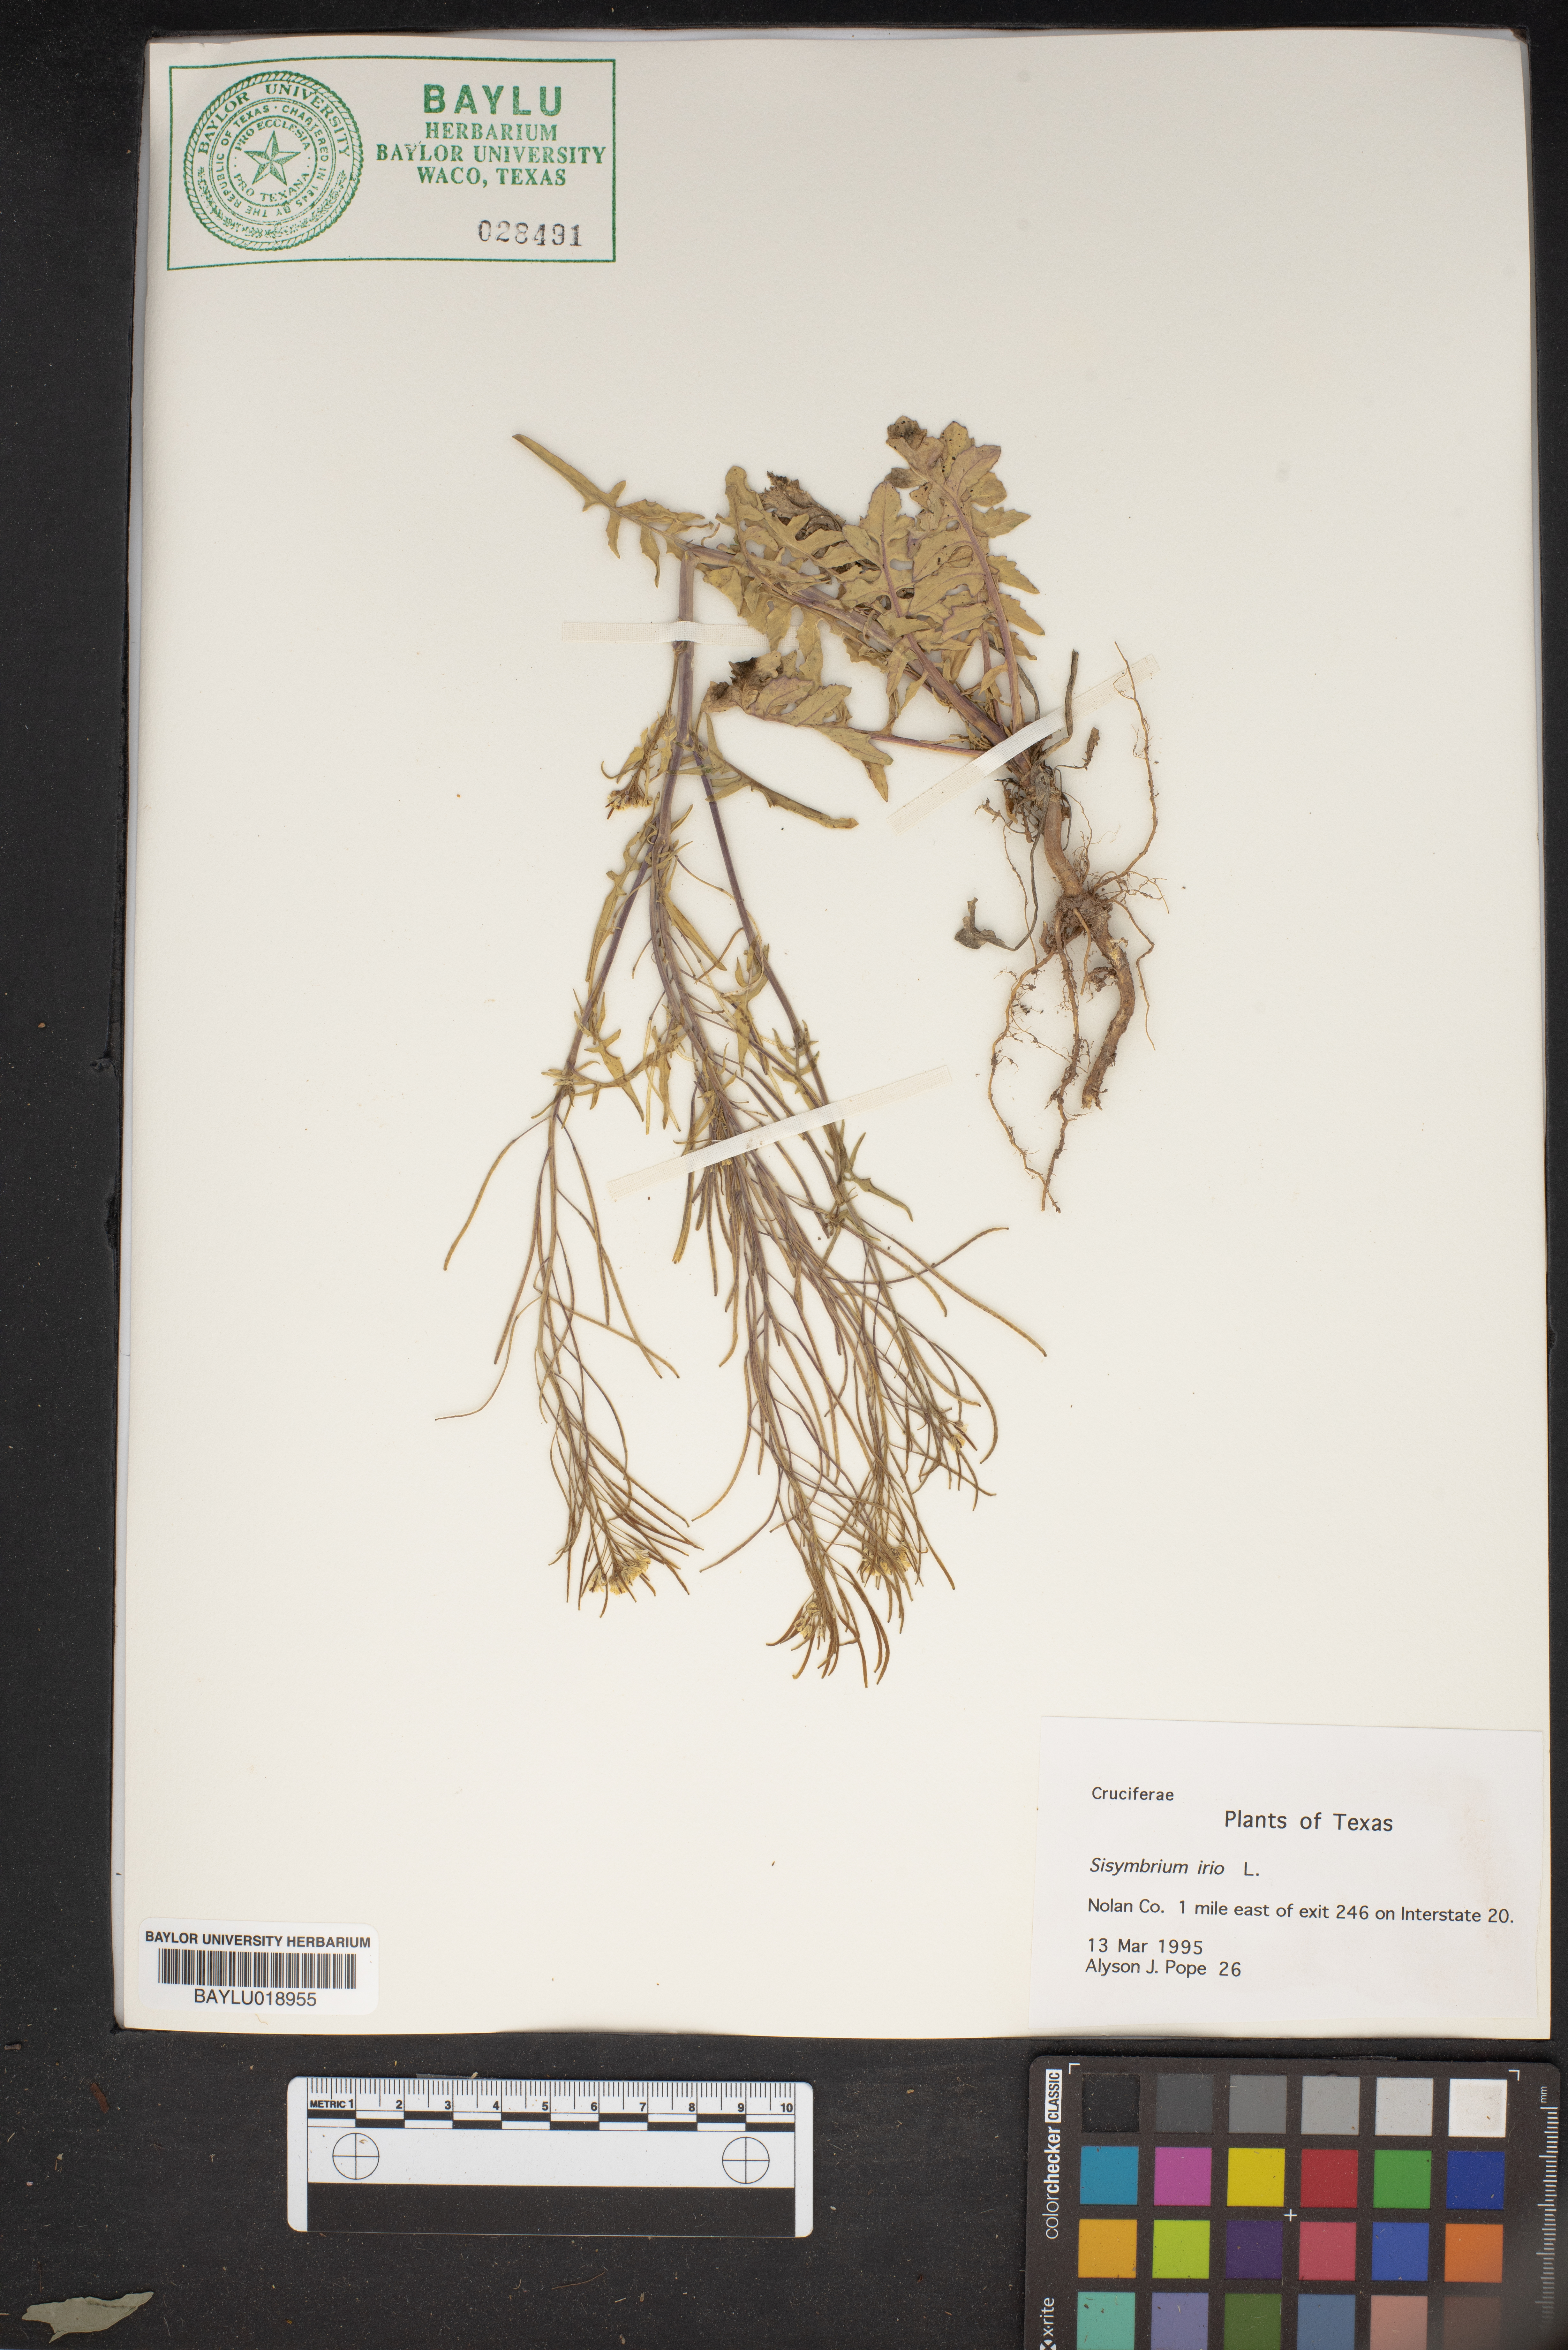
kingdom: Plantae
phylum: Tracheophyta
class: Magnoliopsida
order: Brassicales
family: Brassicaceae
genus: Sisymbrium
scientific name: Sisymbrium irio
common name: London rocket
